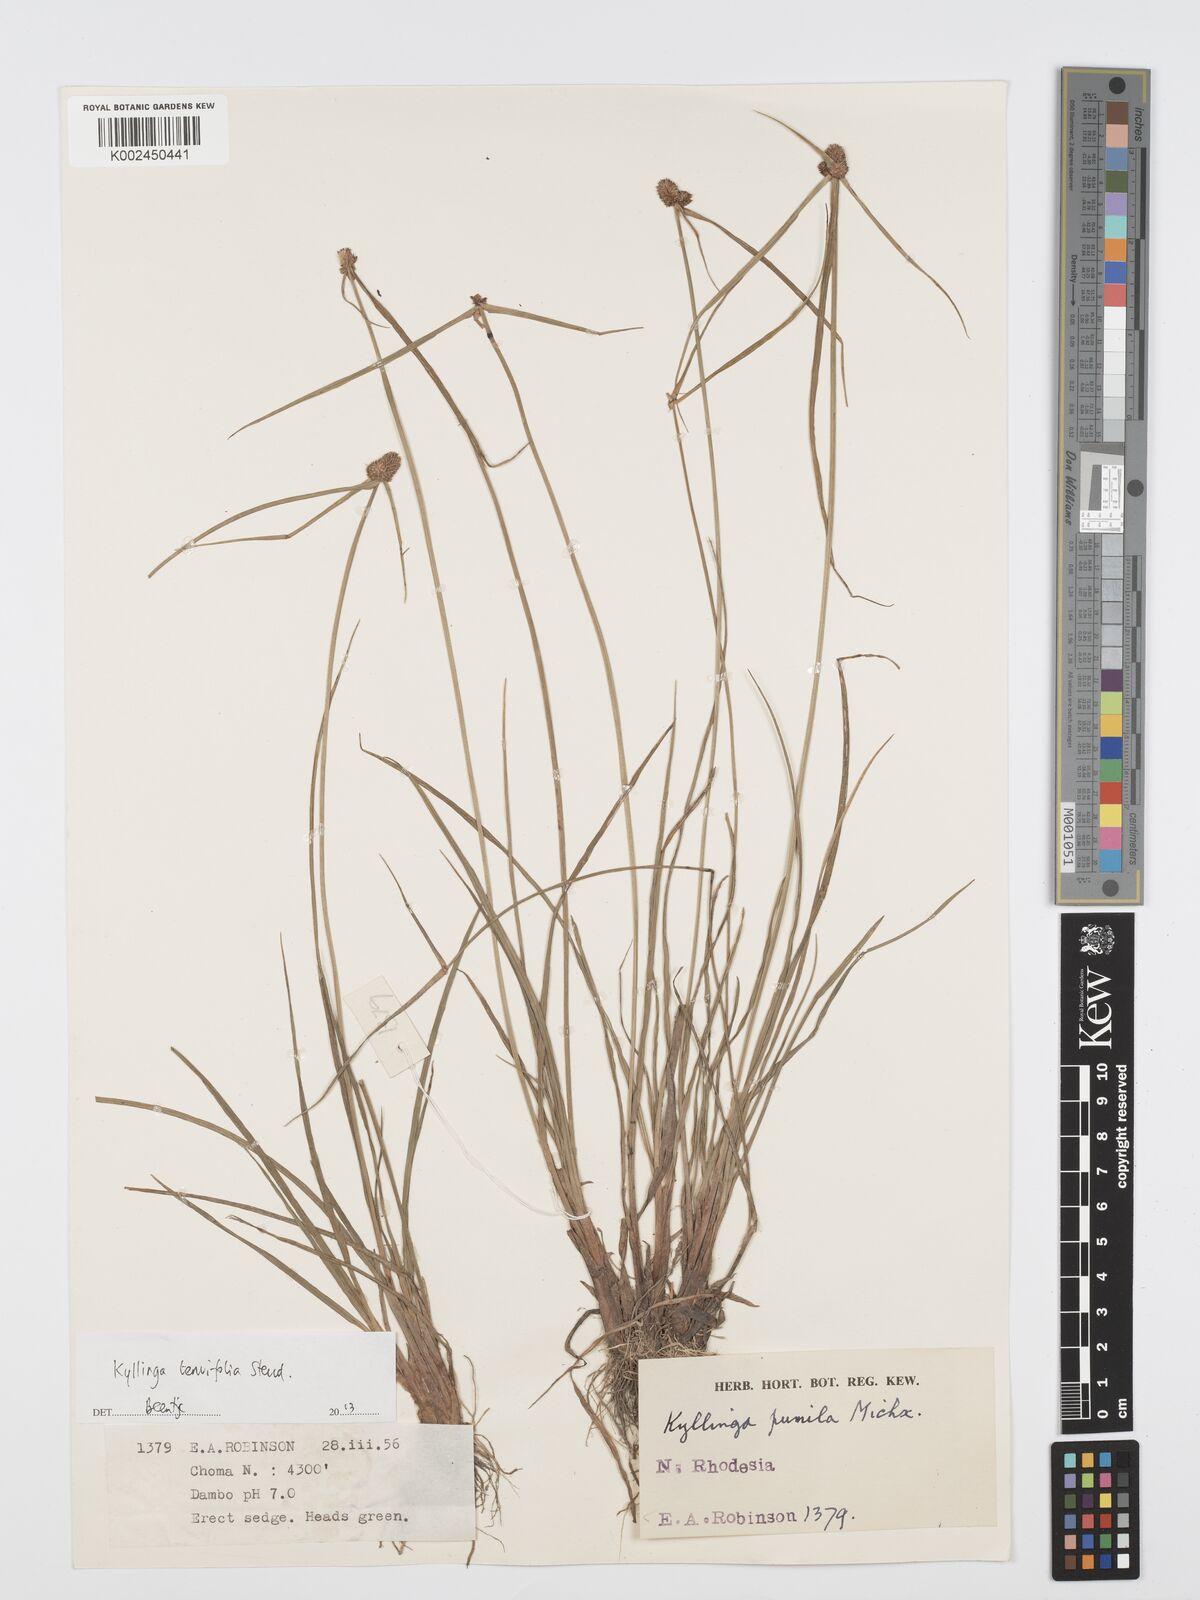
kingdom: Plantae
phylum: Tracheophyta
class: Liliopsida
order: Poales
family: Cyperaceae
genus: Cyperus
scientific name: Cyperus tenuifolius
